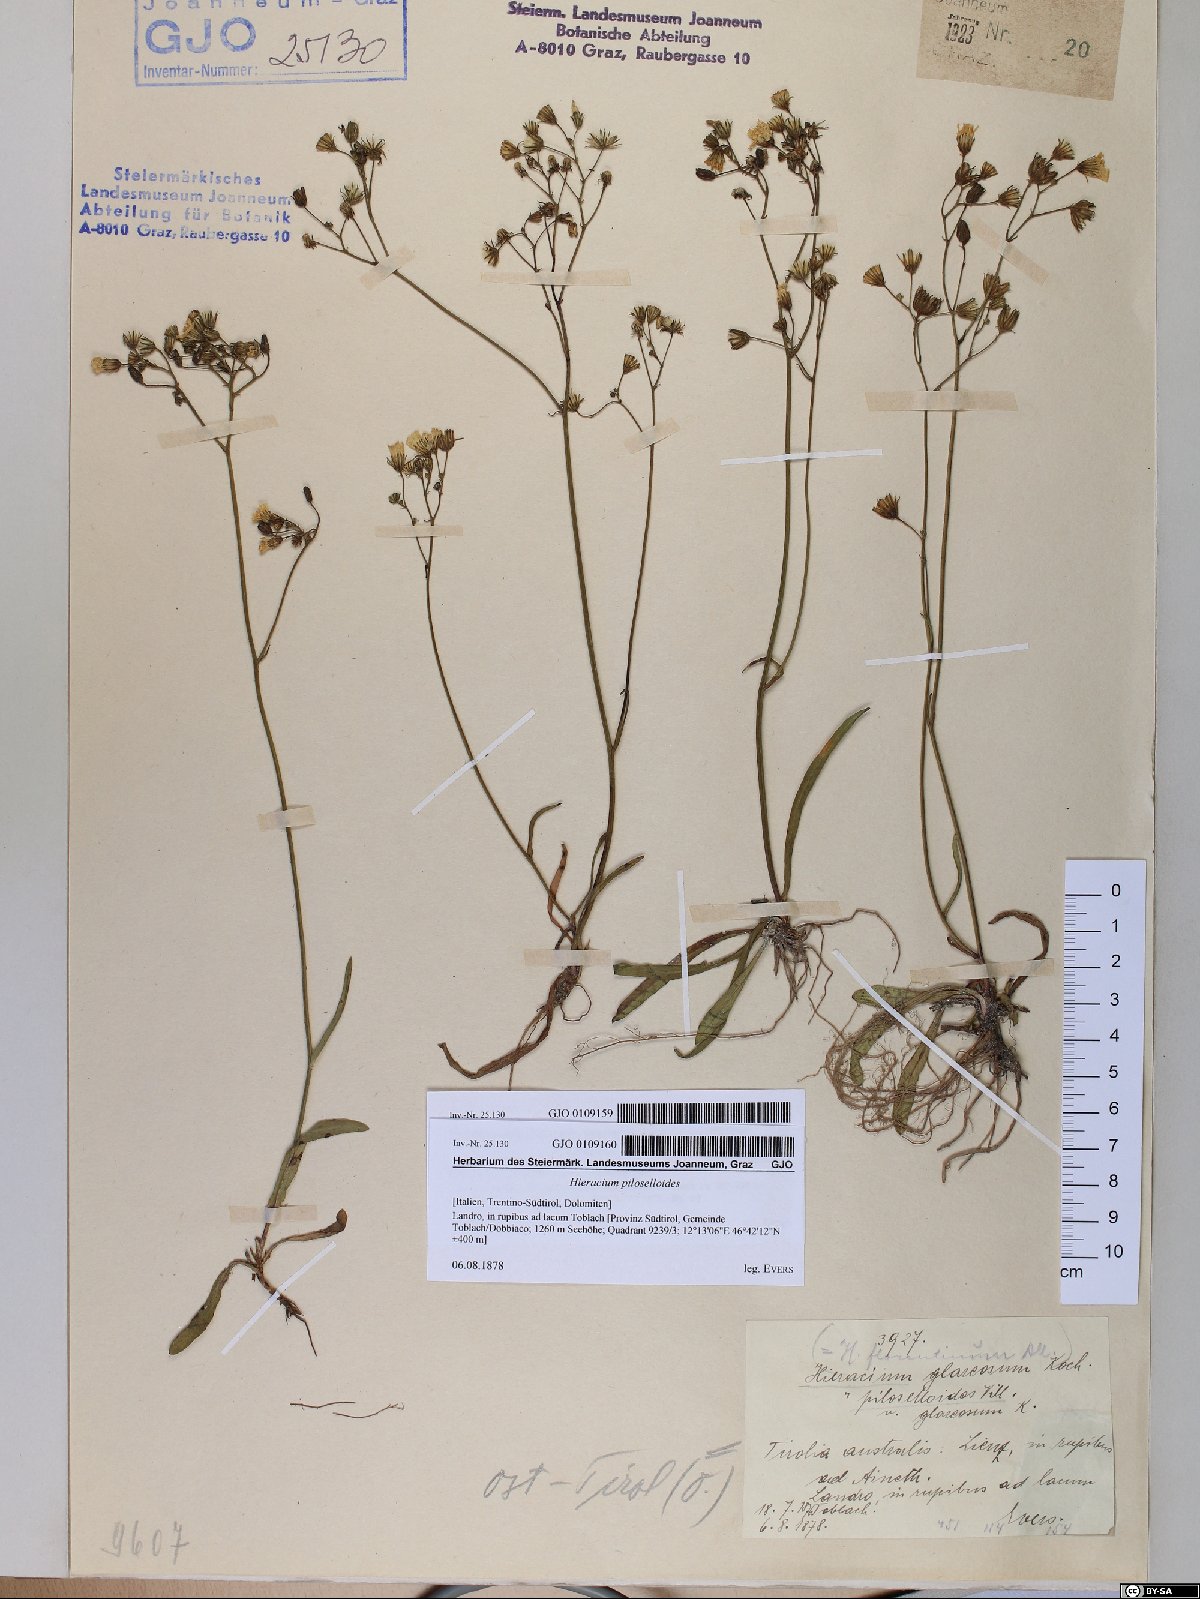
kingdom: Plantae
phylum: Tracheophyta
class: Magnoliopsida
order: Asterales
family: Asteraceae
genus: Pilosella
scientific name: Pilosella piloselloides
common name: Glaucous king-devil
